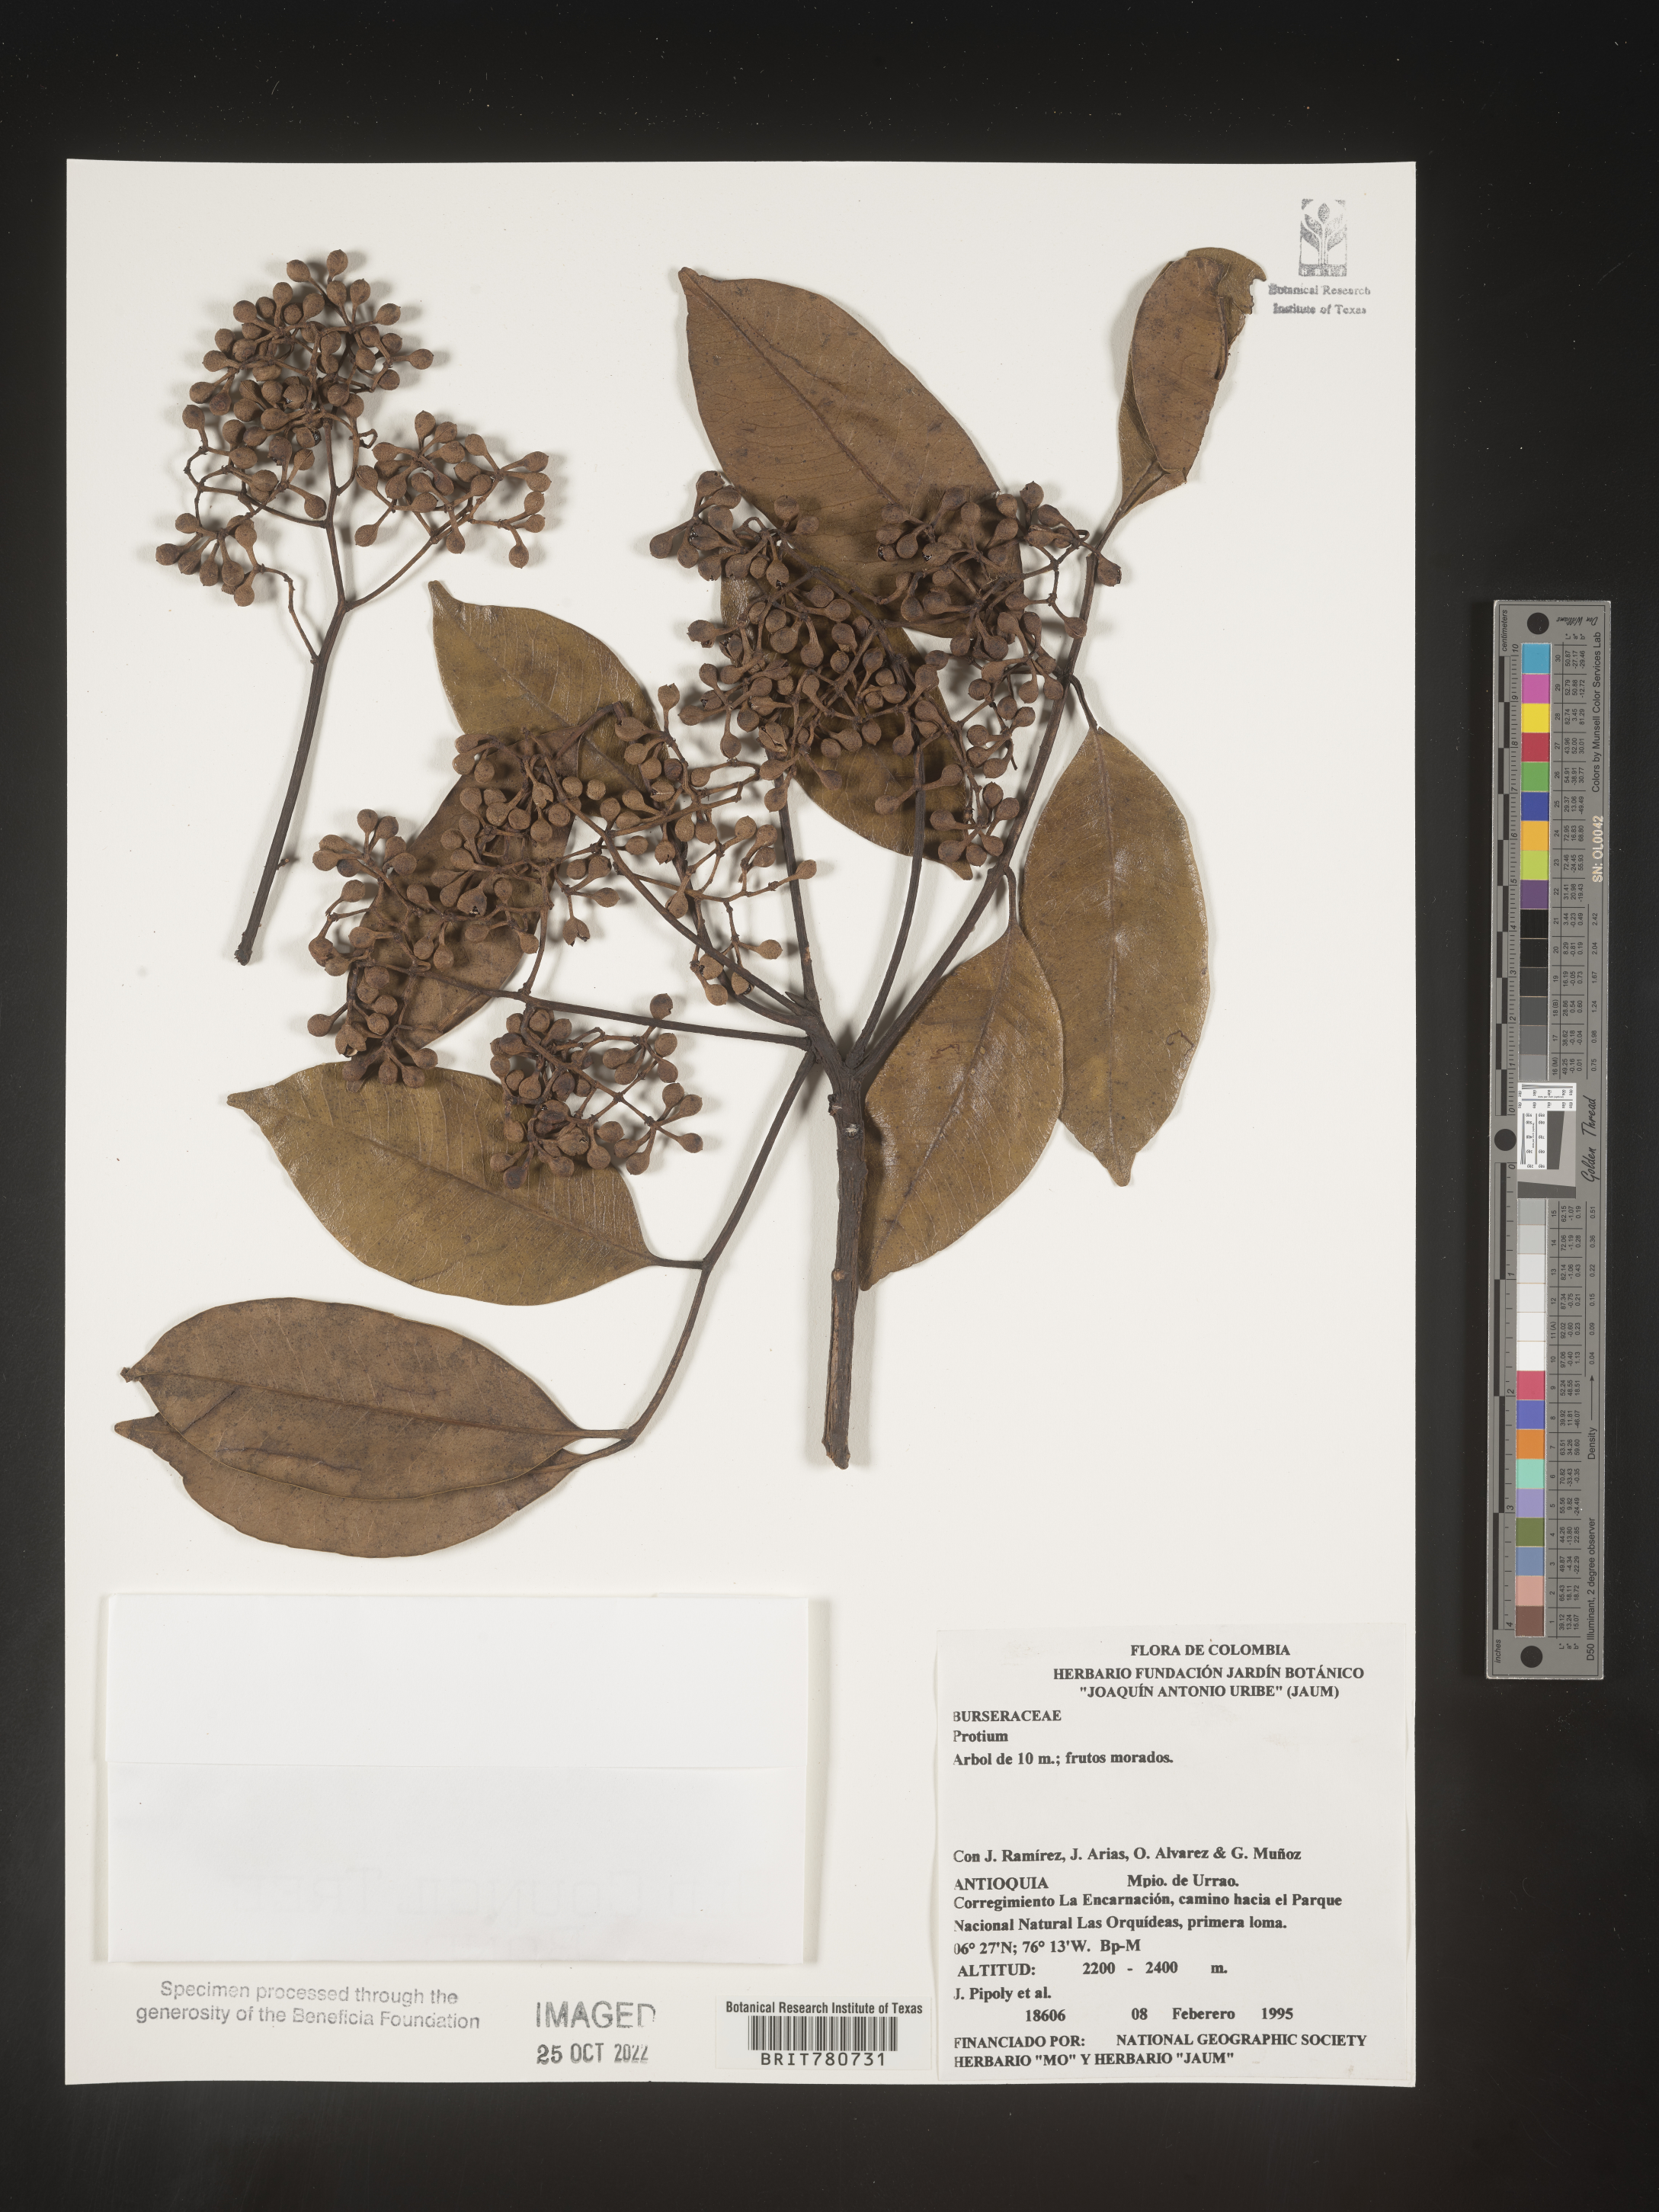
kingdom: Plantae
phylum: Tracheophyta
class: Magnoliopsida
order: Sapindales
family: Burseraceae
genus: Protium
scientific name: Protium
